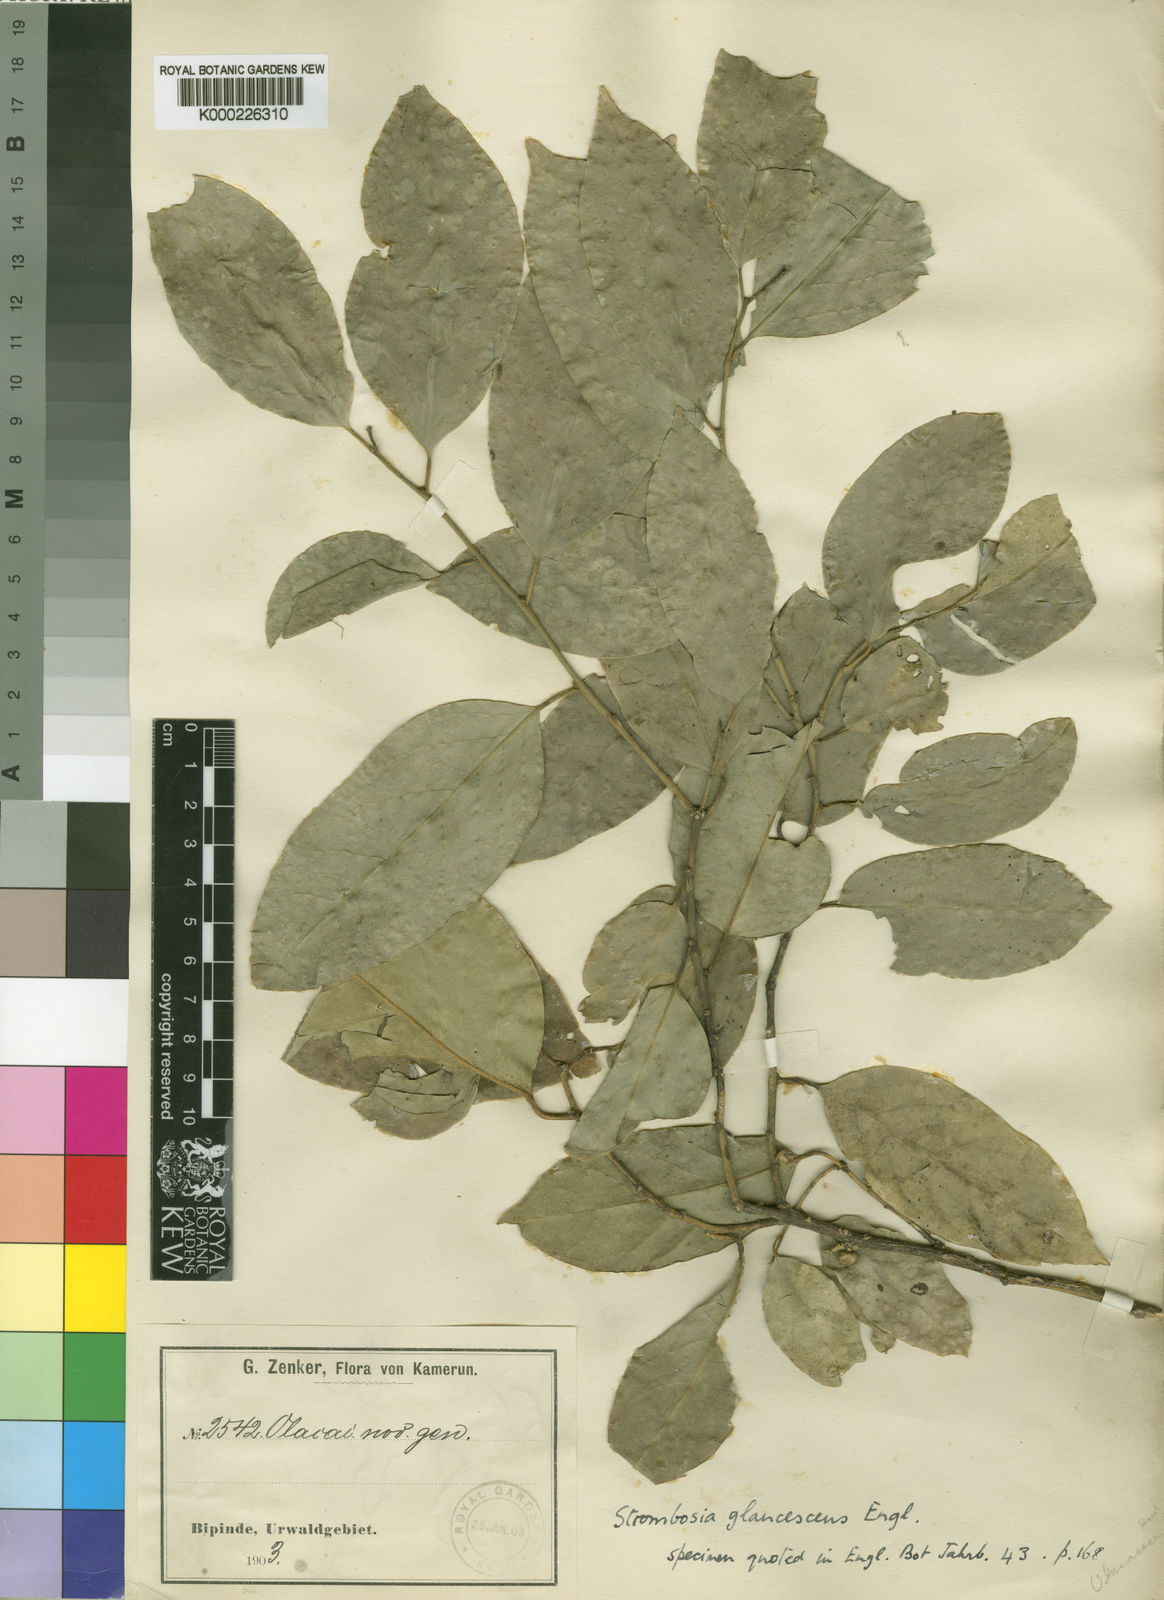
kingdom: Plantae
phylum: Tracheophyta
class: Magnoliopsida
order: Santalales
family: Strombosiaceae
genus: Strombosia
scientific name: Strombosia pustulata
